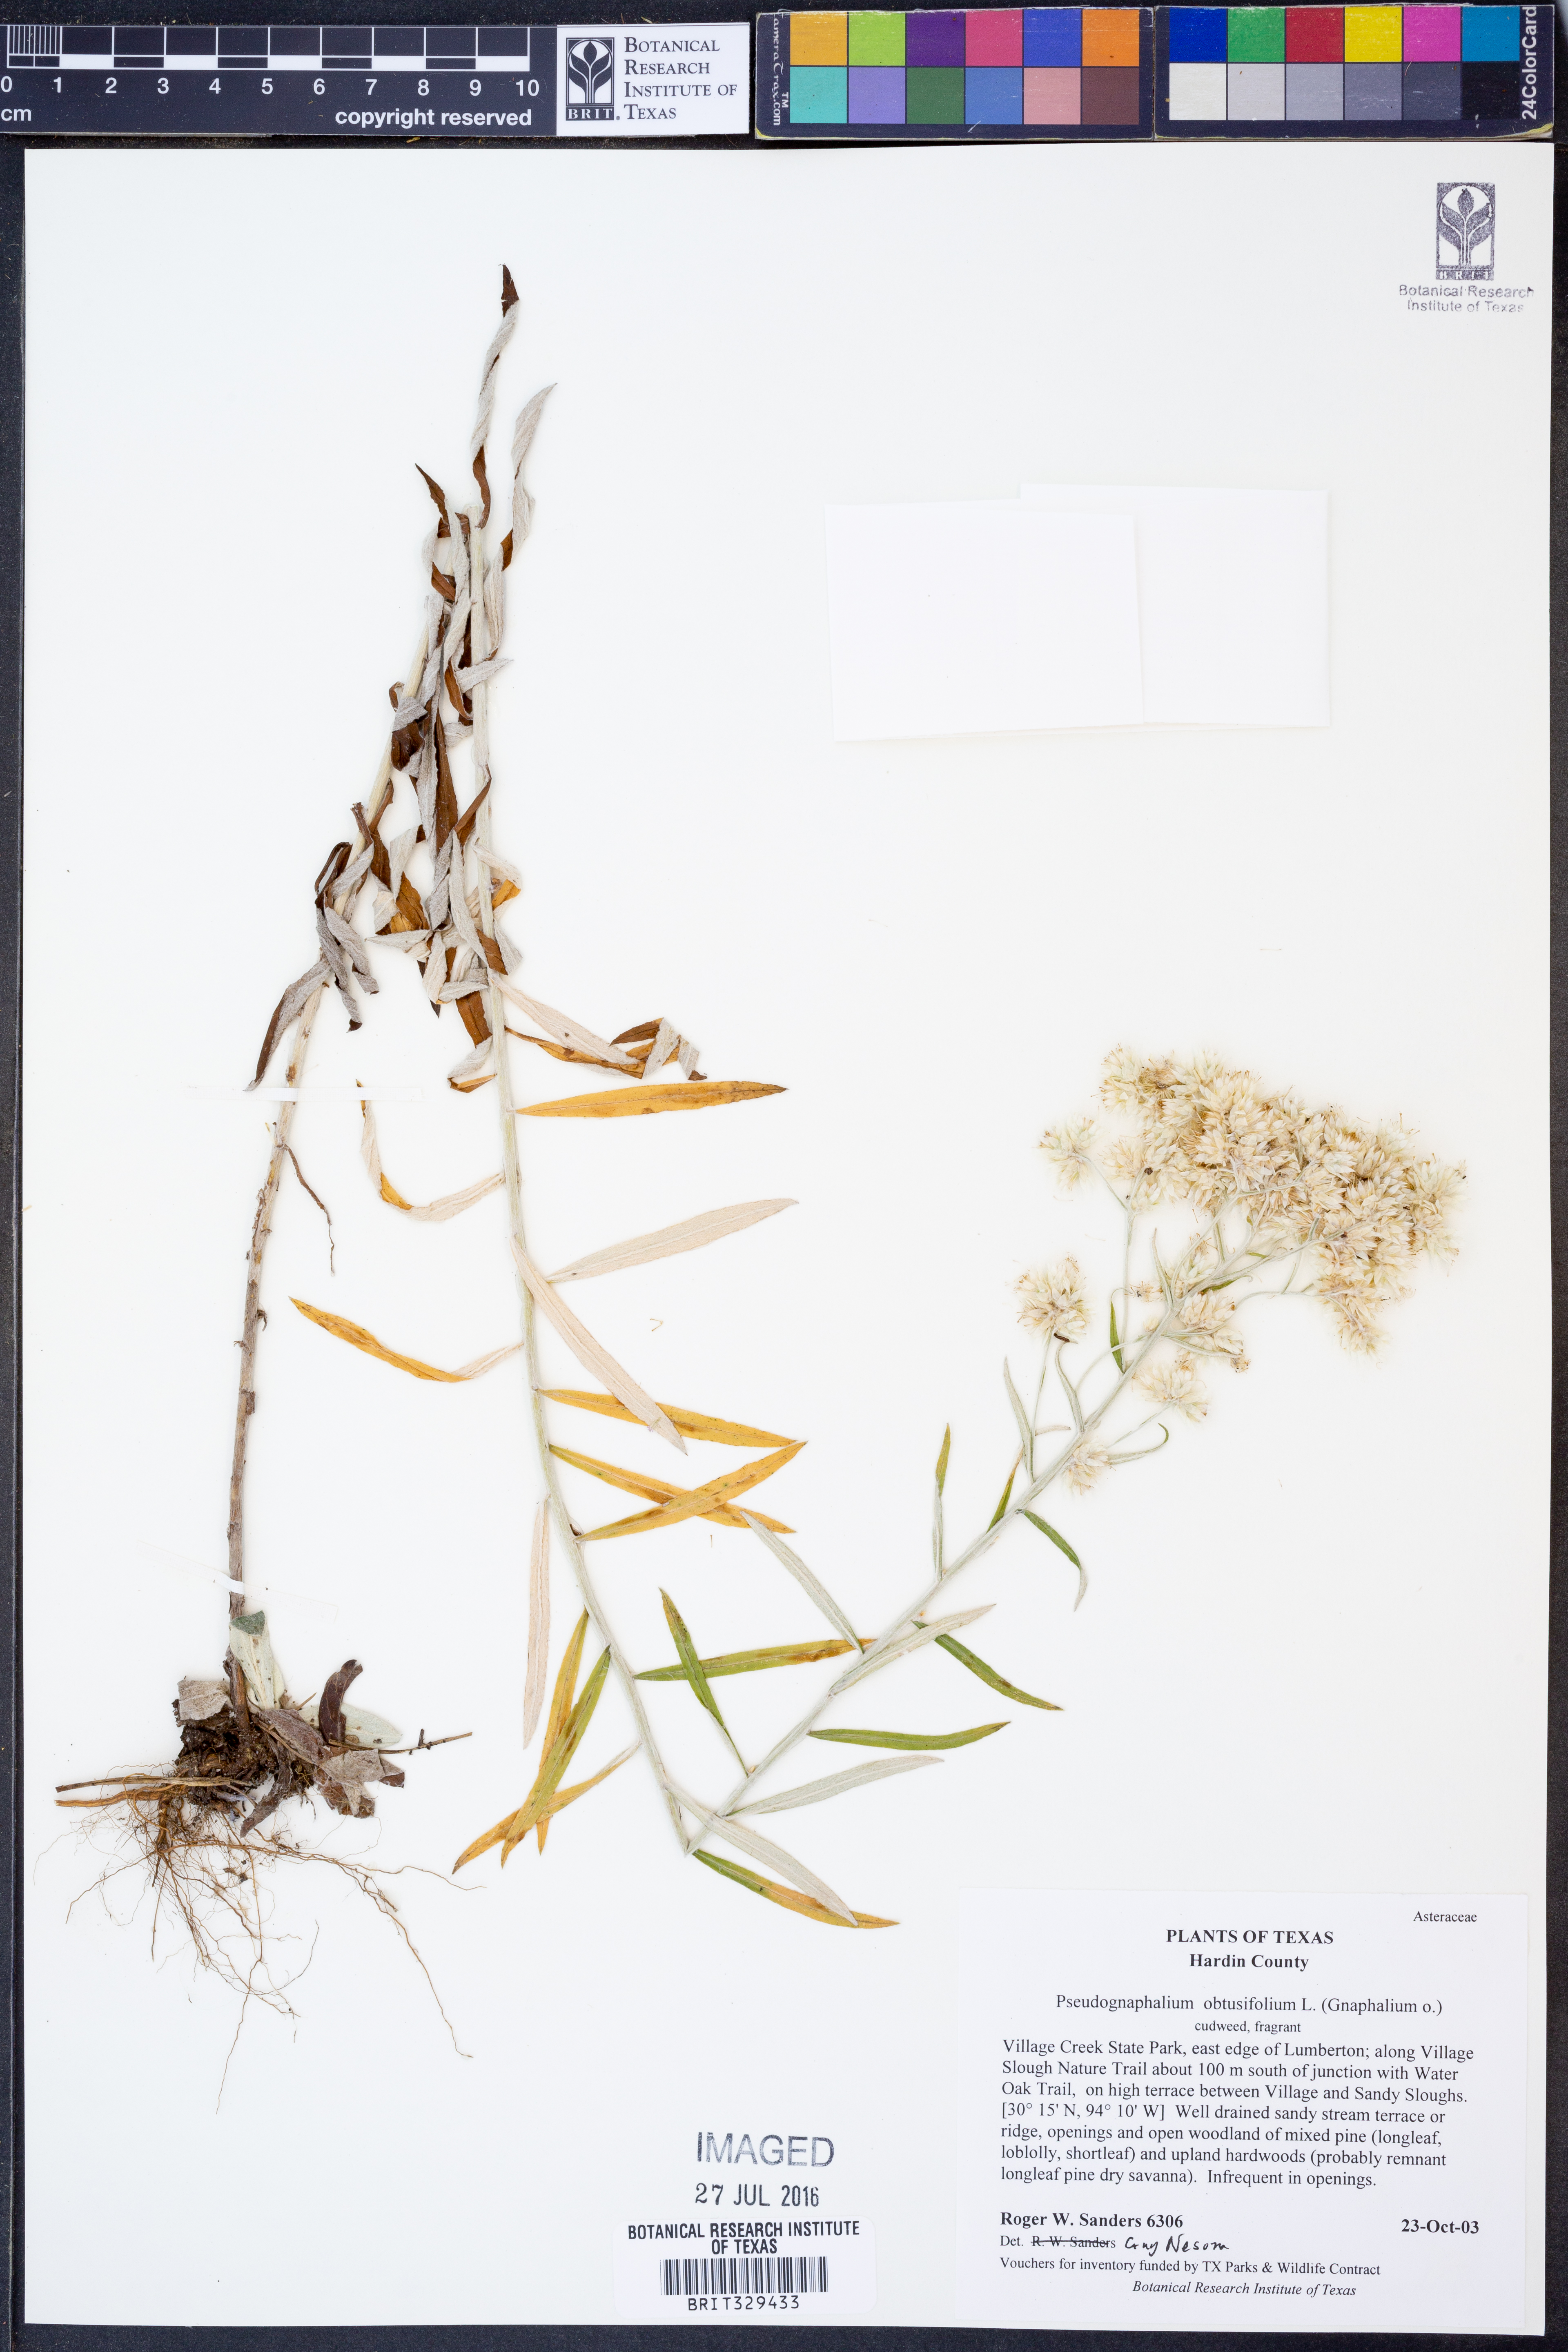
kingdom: Plantae
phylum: Tracheophyta
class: Magnoliopsida
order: Asterales
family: Asteraceae
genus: Pseudognaphalium
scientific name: Pseudognaphalium obtusifolium
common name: Eastern rabbit-tobacco
